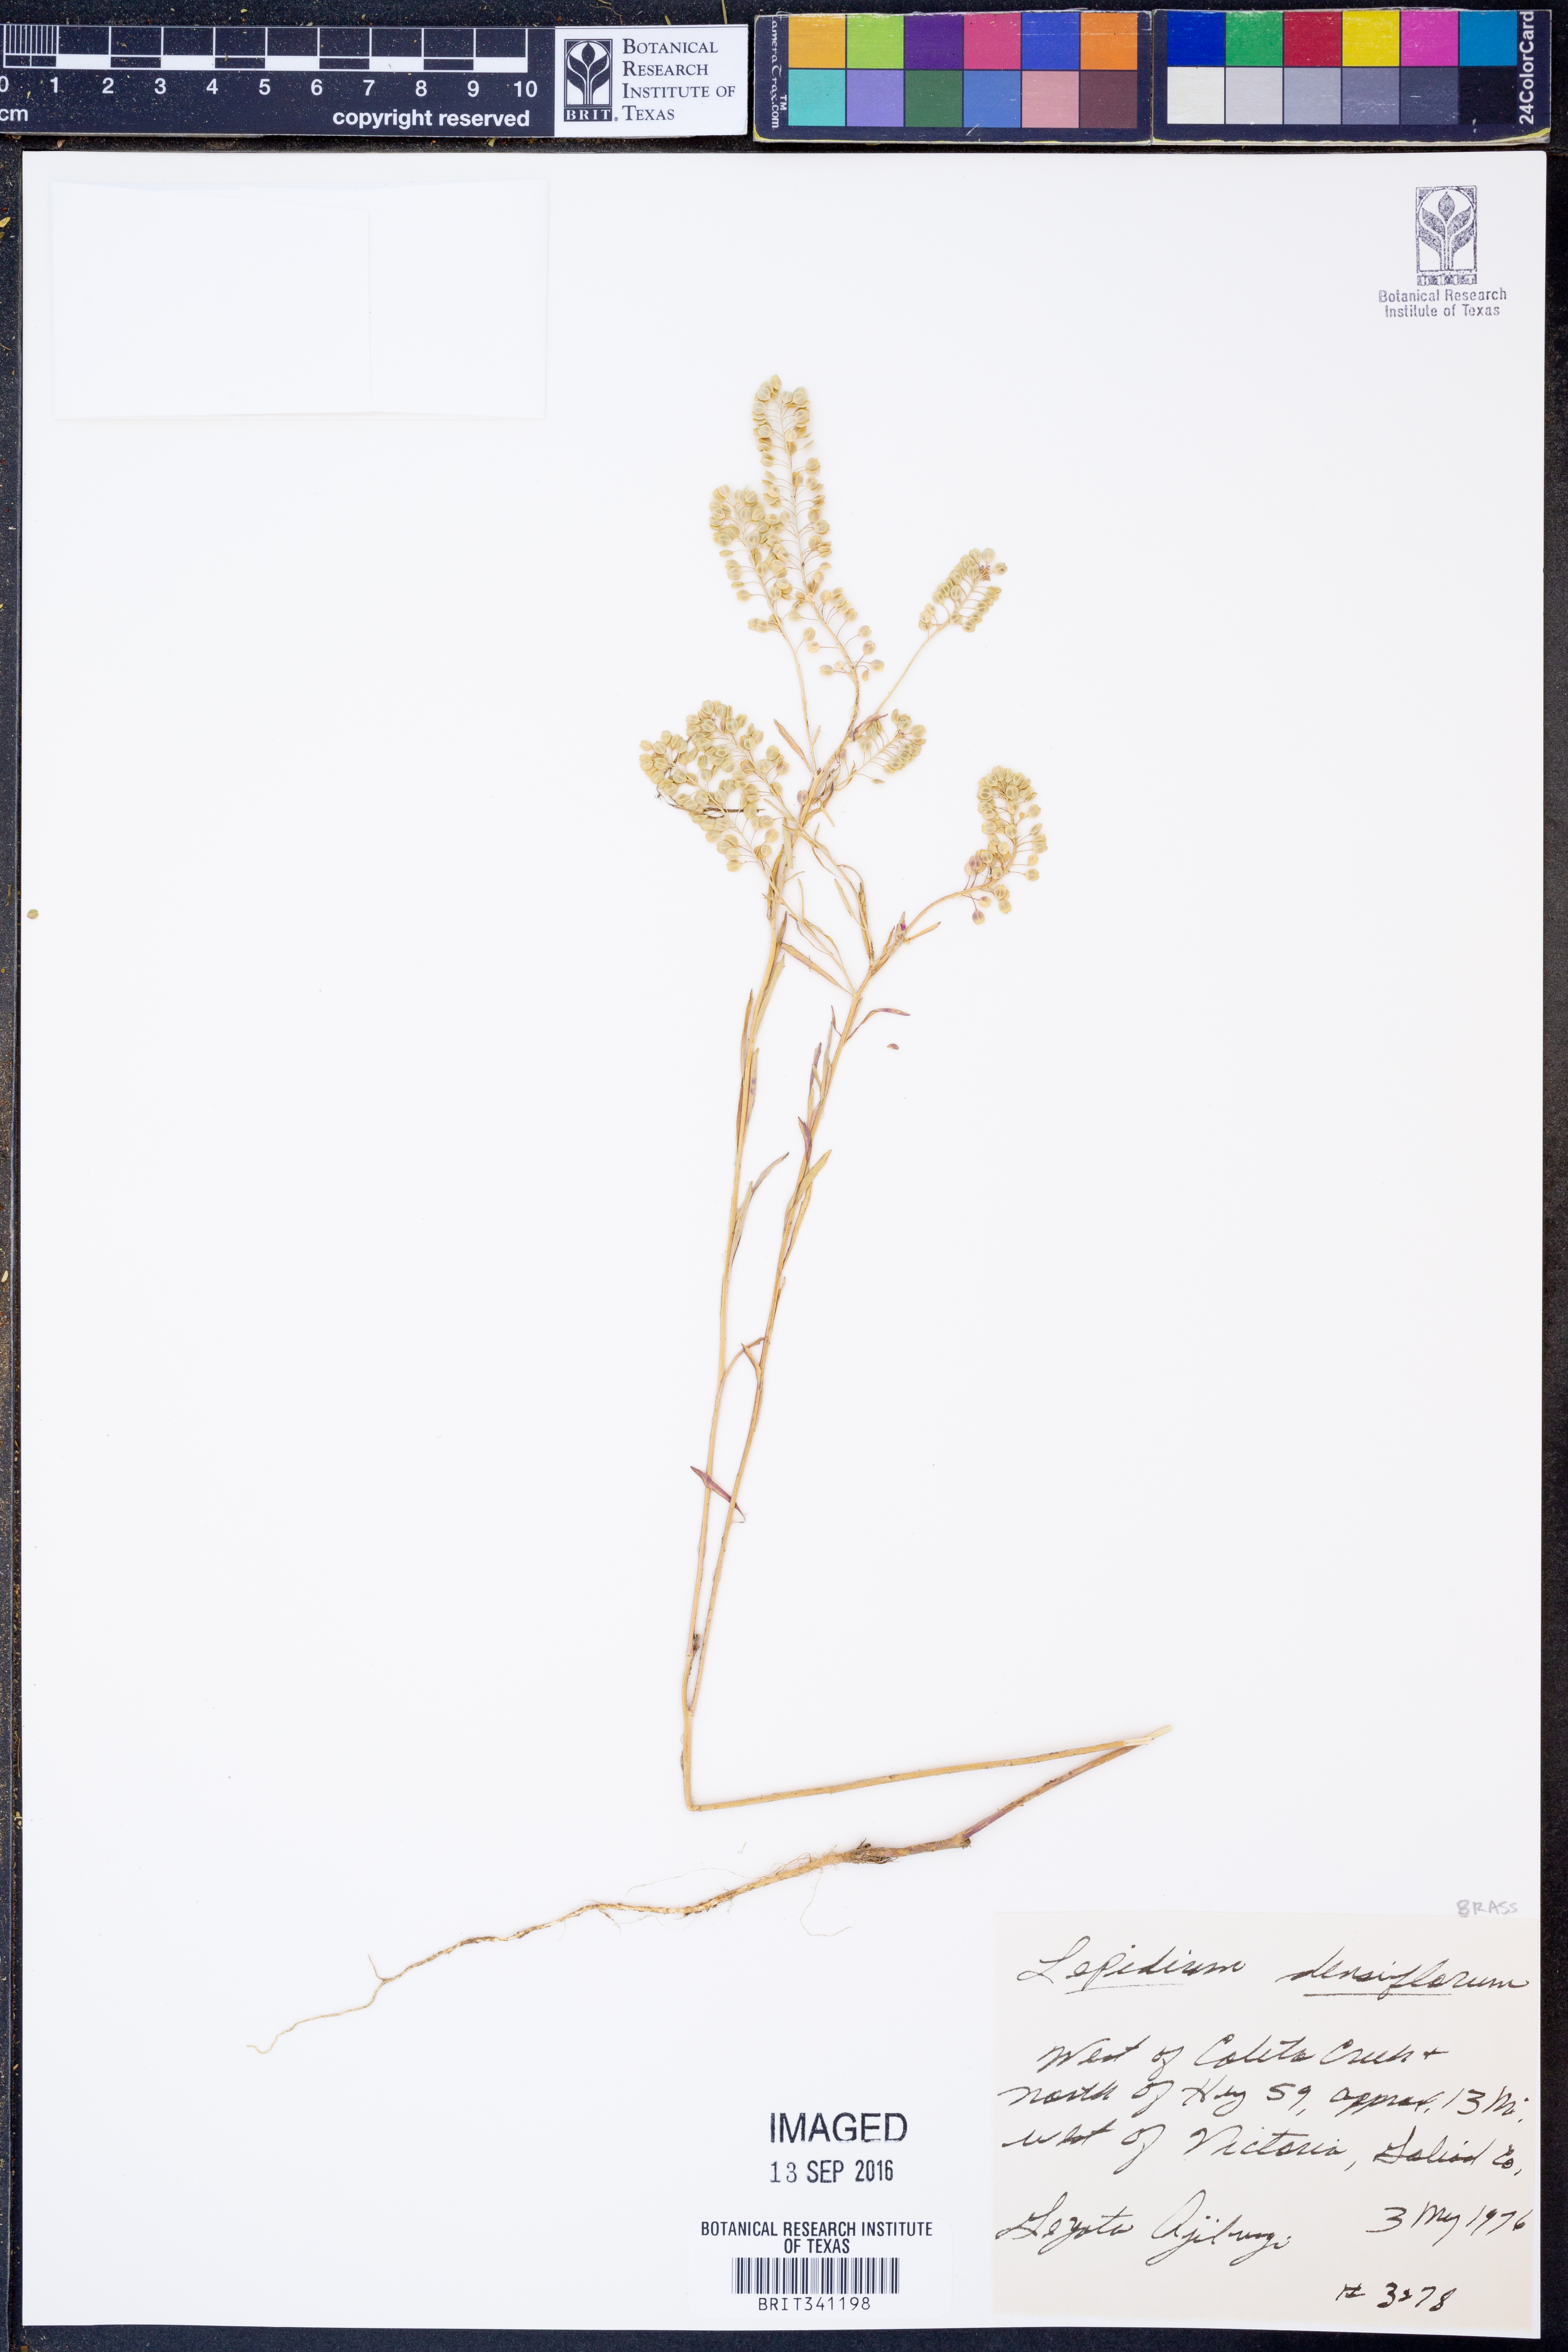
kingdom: Plantae
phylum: Tracheophyta
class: Magnoliopsida
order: Brassicales
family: Brassicaceae
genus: Lepidium
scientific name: Lepidium densiflorum
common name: Miner's pepperwort
